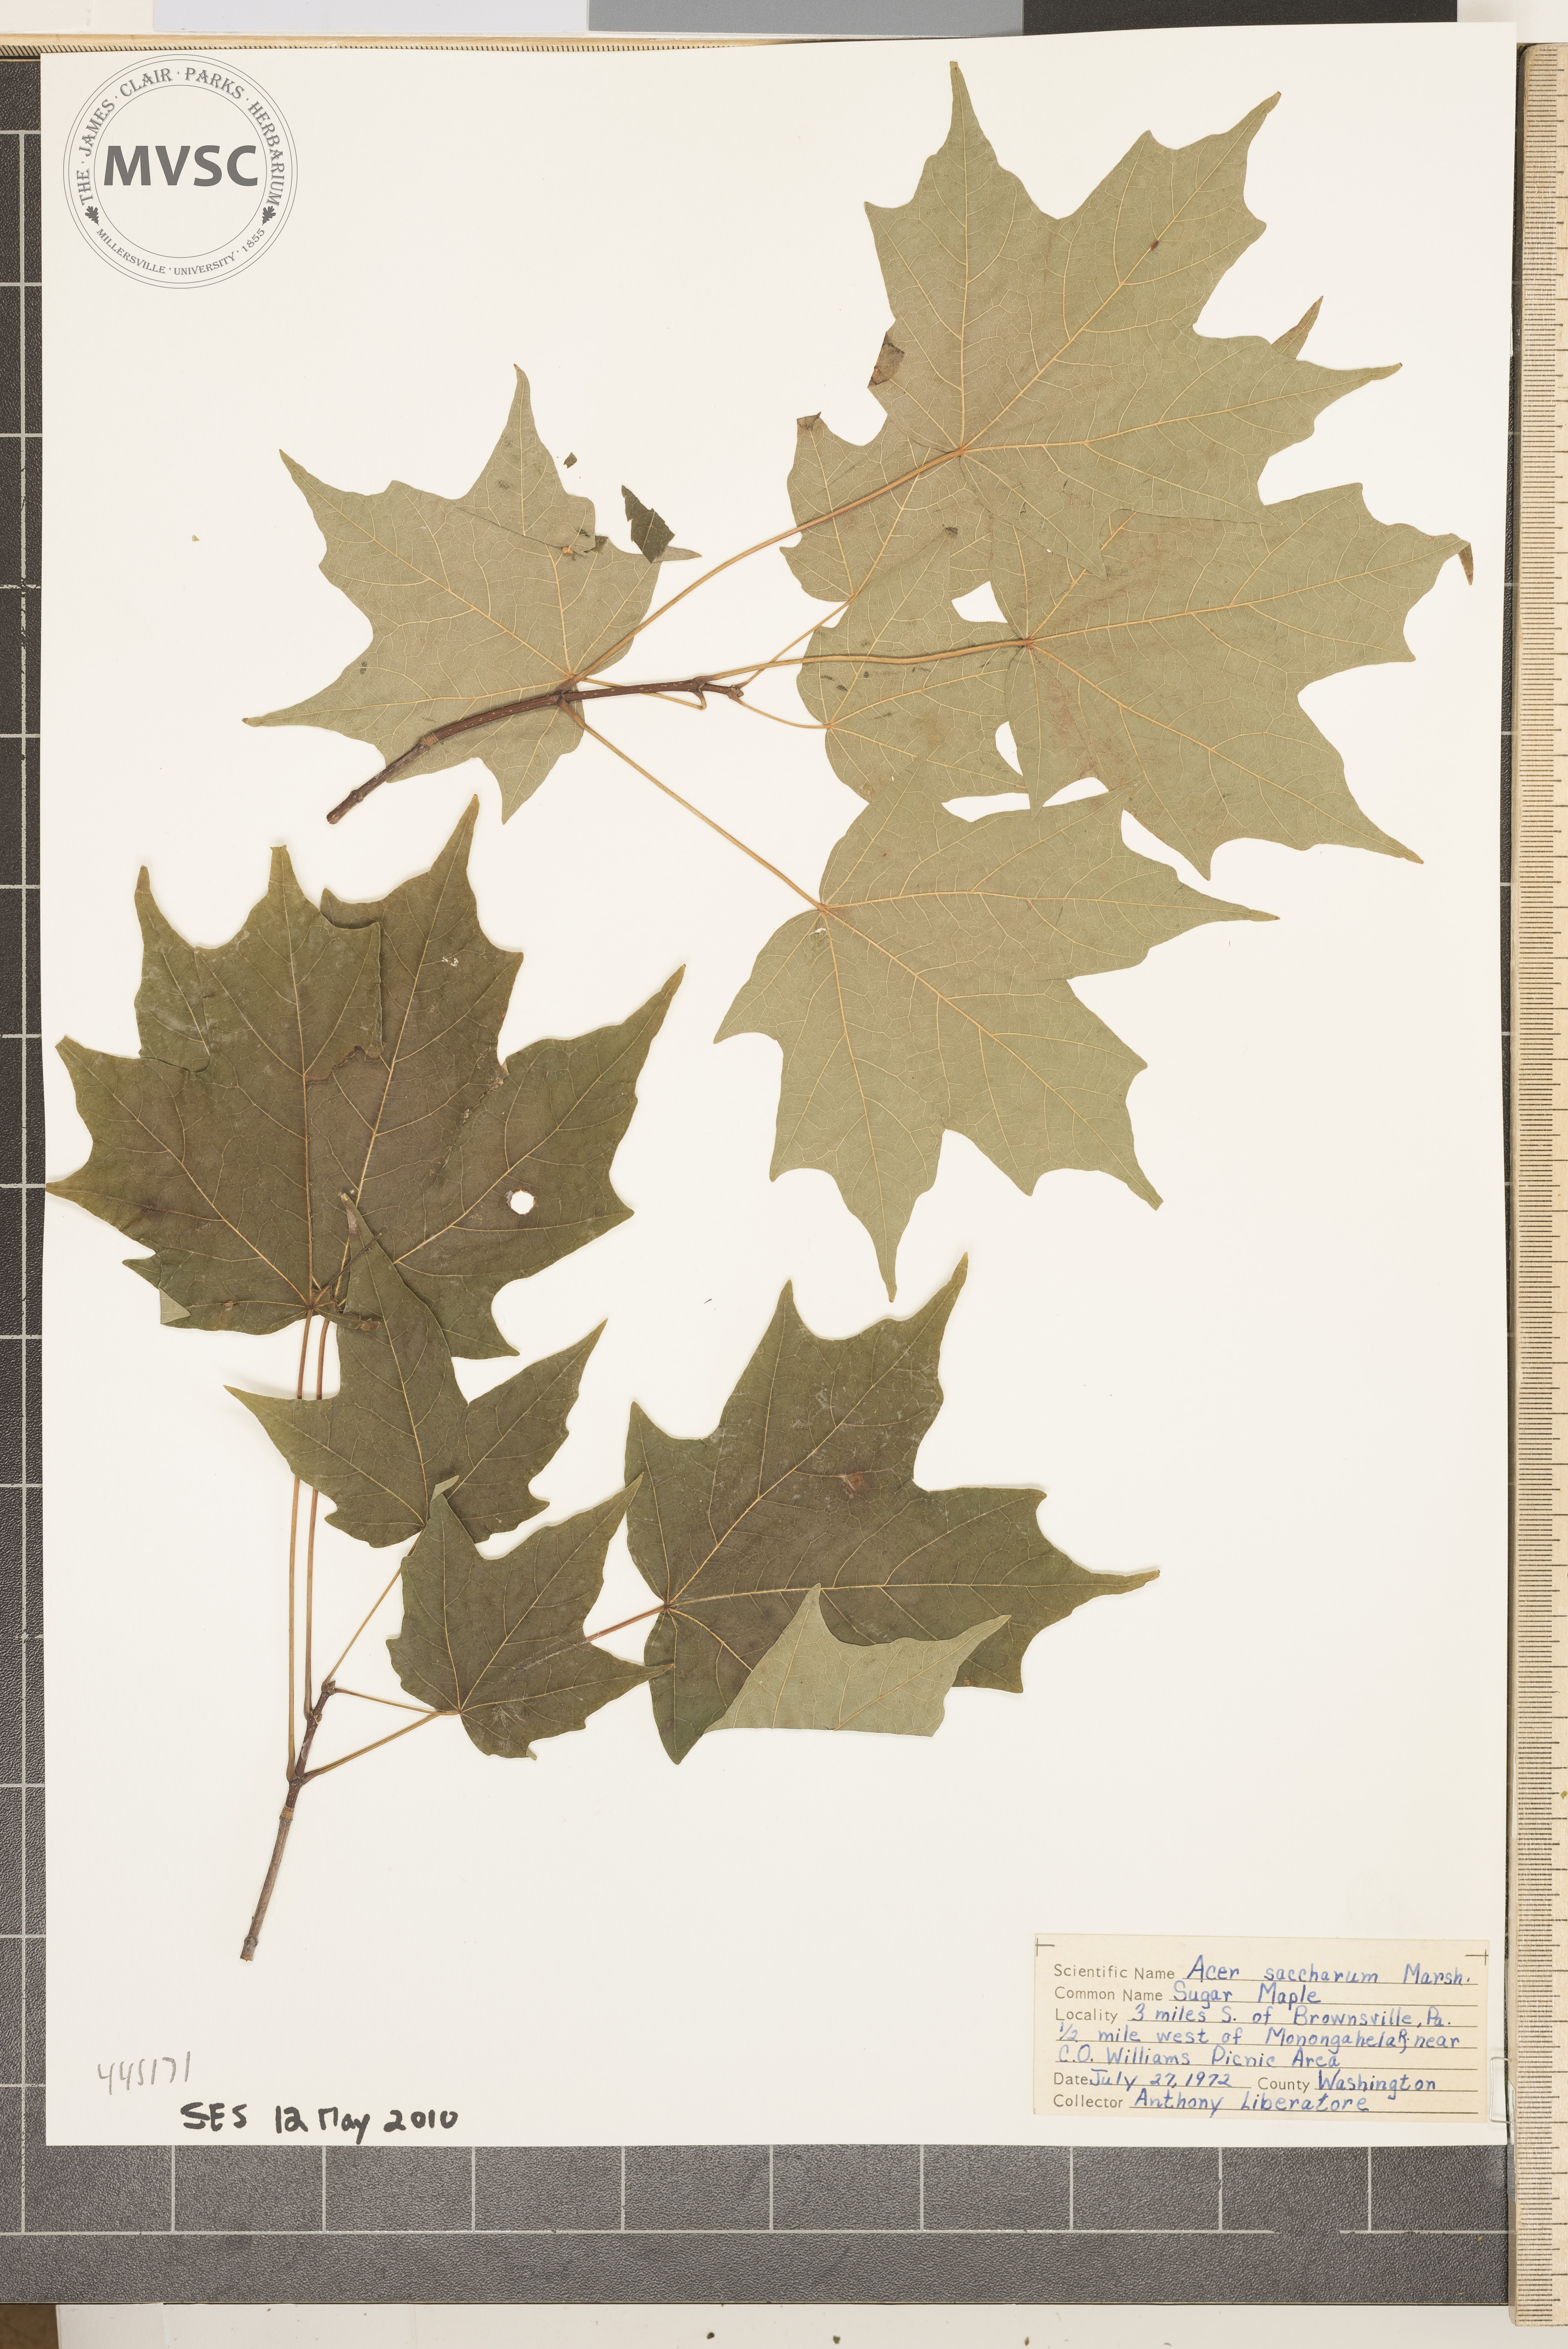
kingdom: Plantae
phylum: Tracheophyta
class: Magnoliopsida
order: Sapindales
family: Sapindaceae
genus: Acer
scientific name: Acer saccharum
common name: Sugar Maple
